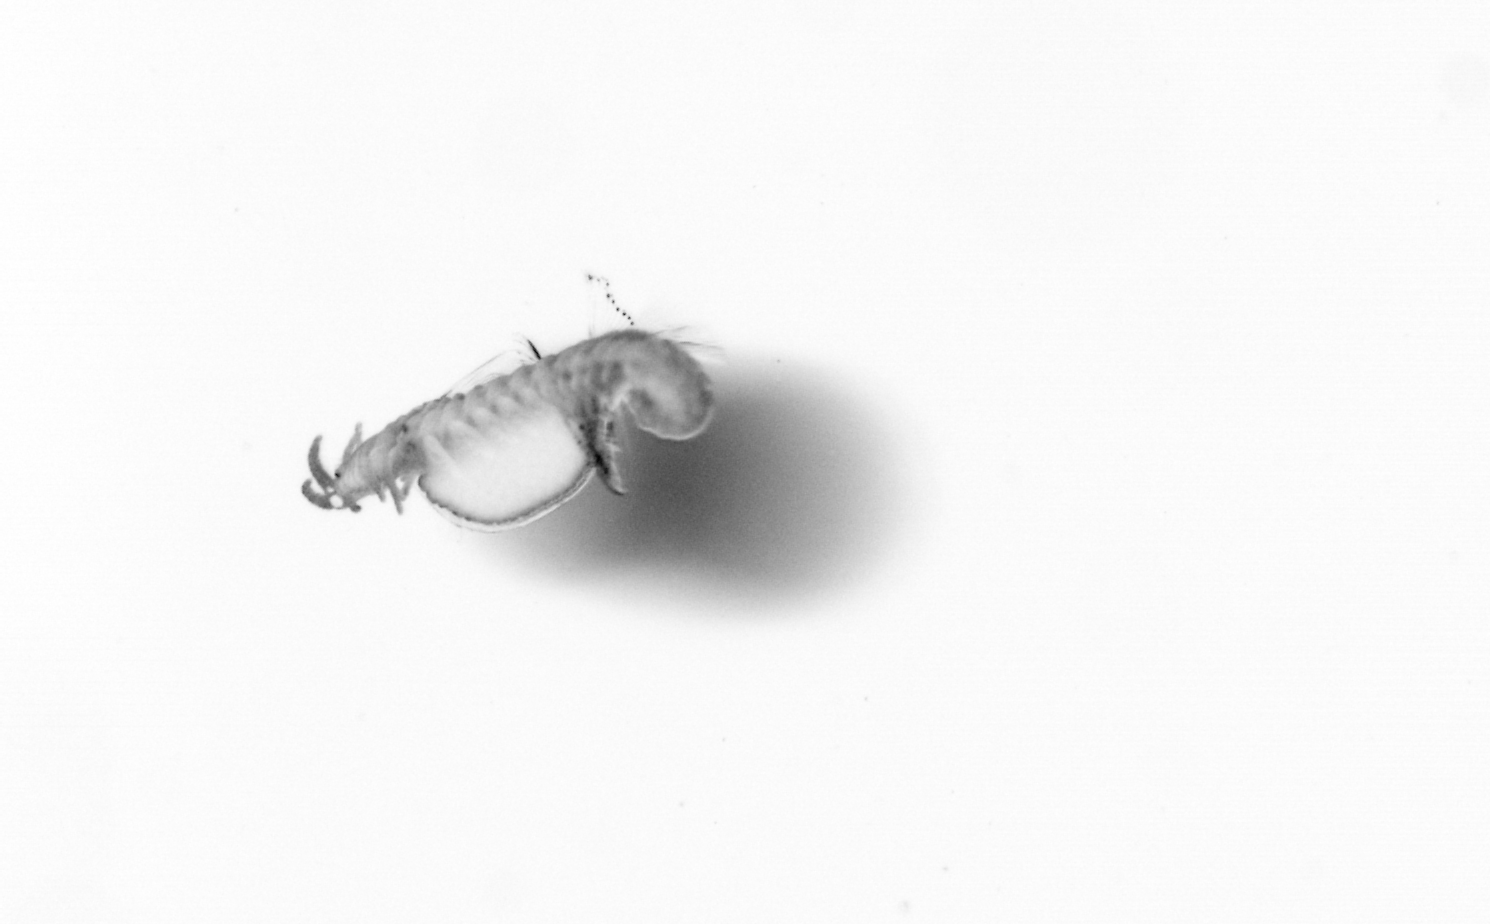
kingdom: Animalia
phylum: Annelida
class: Polychaeta
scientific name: Polychaeta
